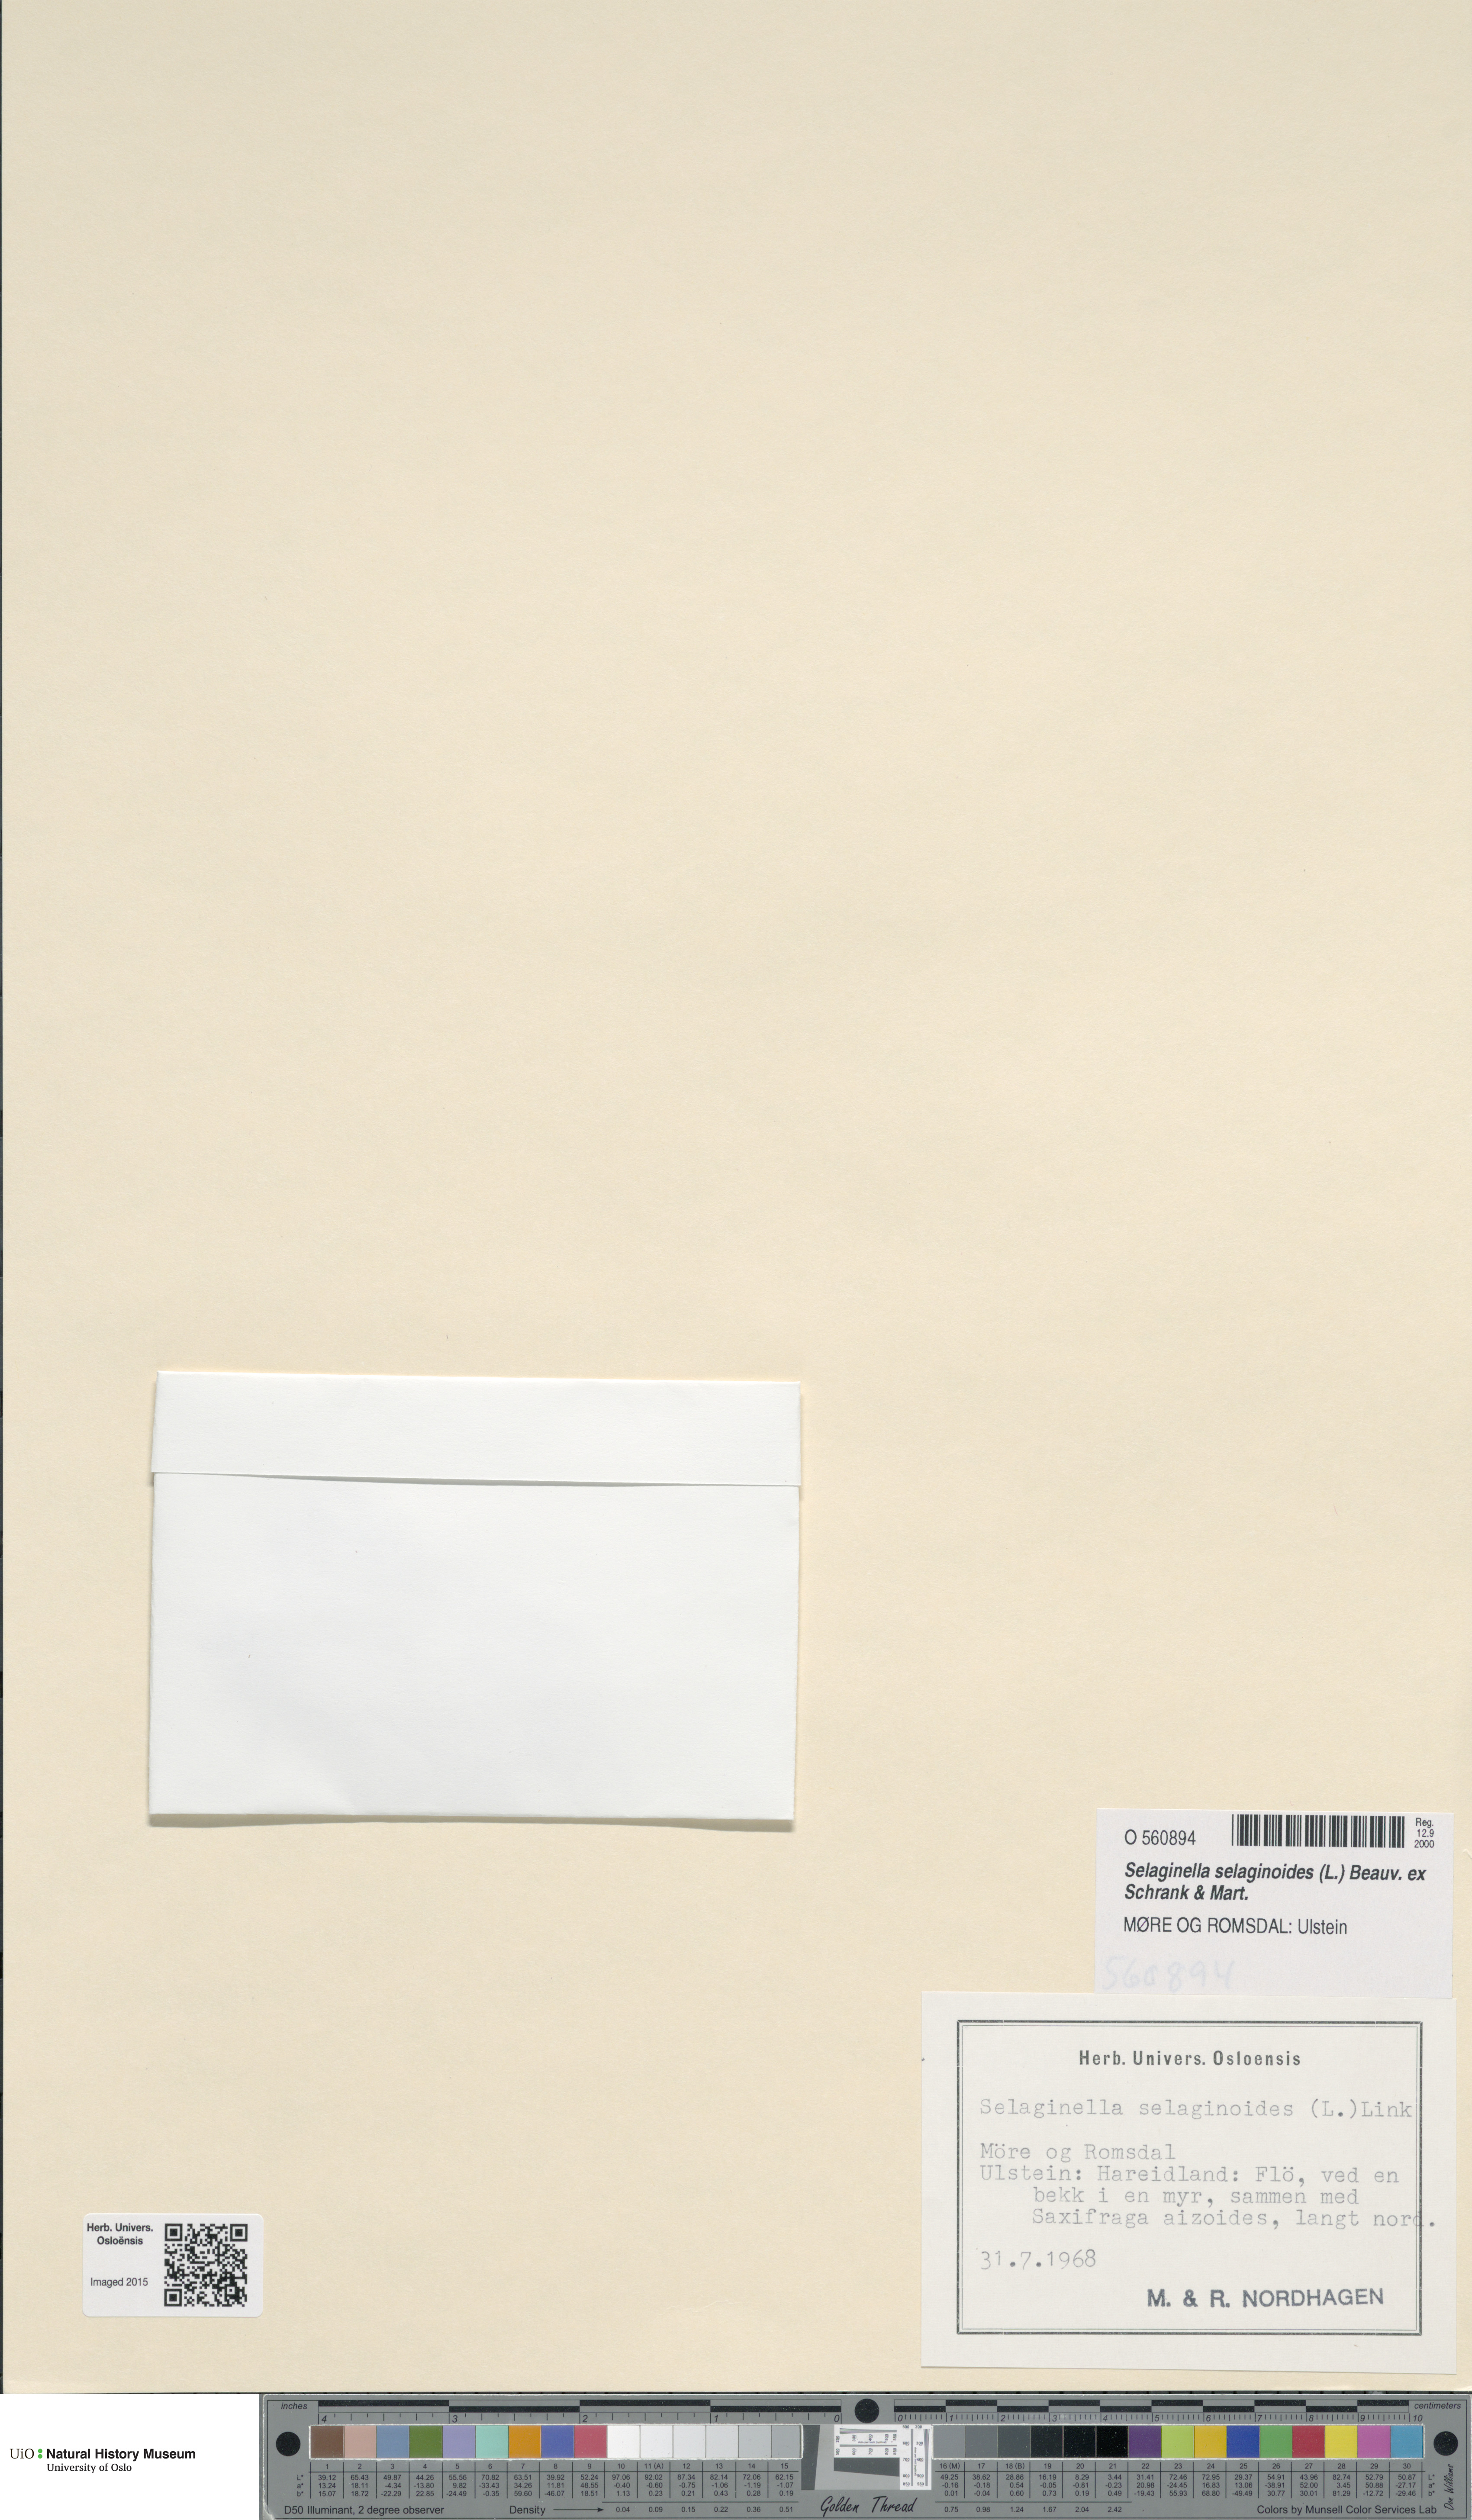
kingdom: Plantae
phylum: Tracheophyta
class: Lycopodiopsida
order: Selaginellales
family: Selaginellaceae
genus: Selaginella
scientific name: Selaginella selaginoides
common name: Prickly mountain-moss
